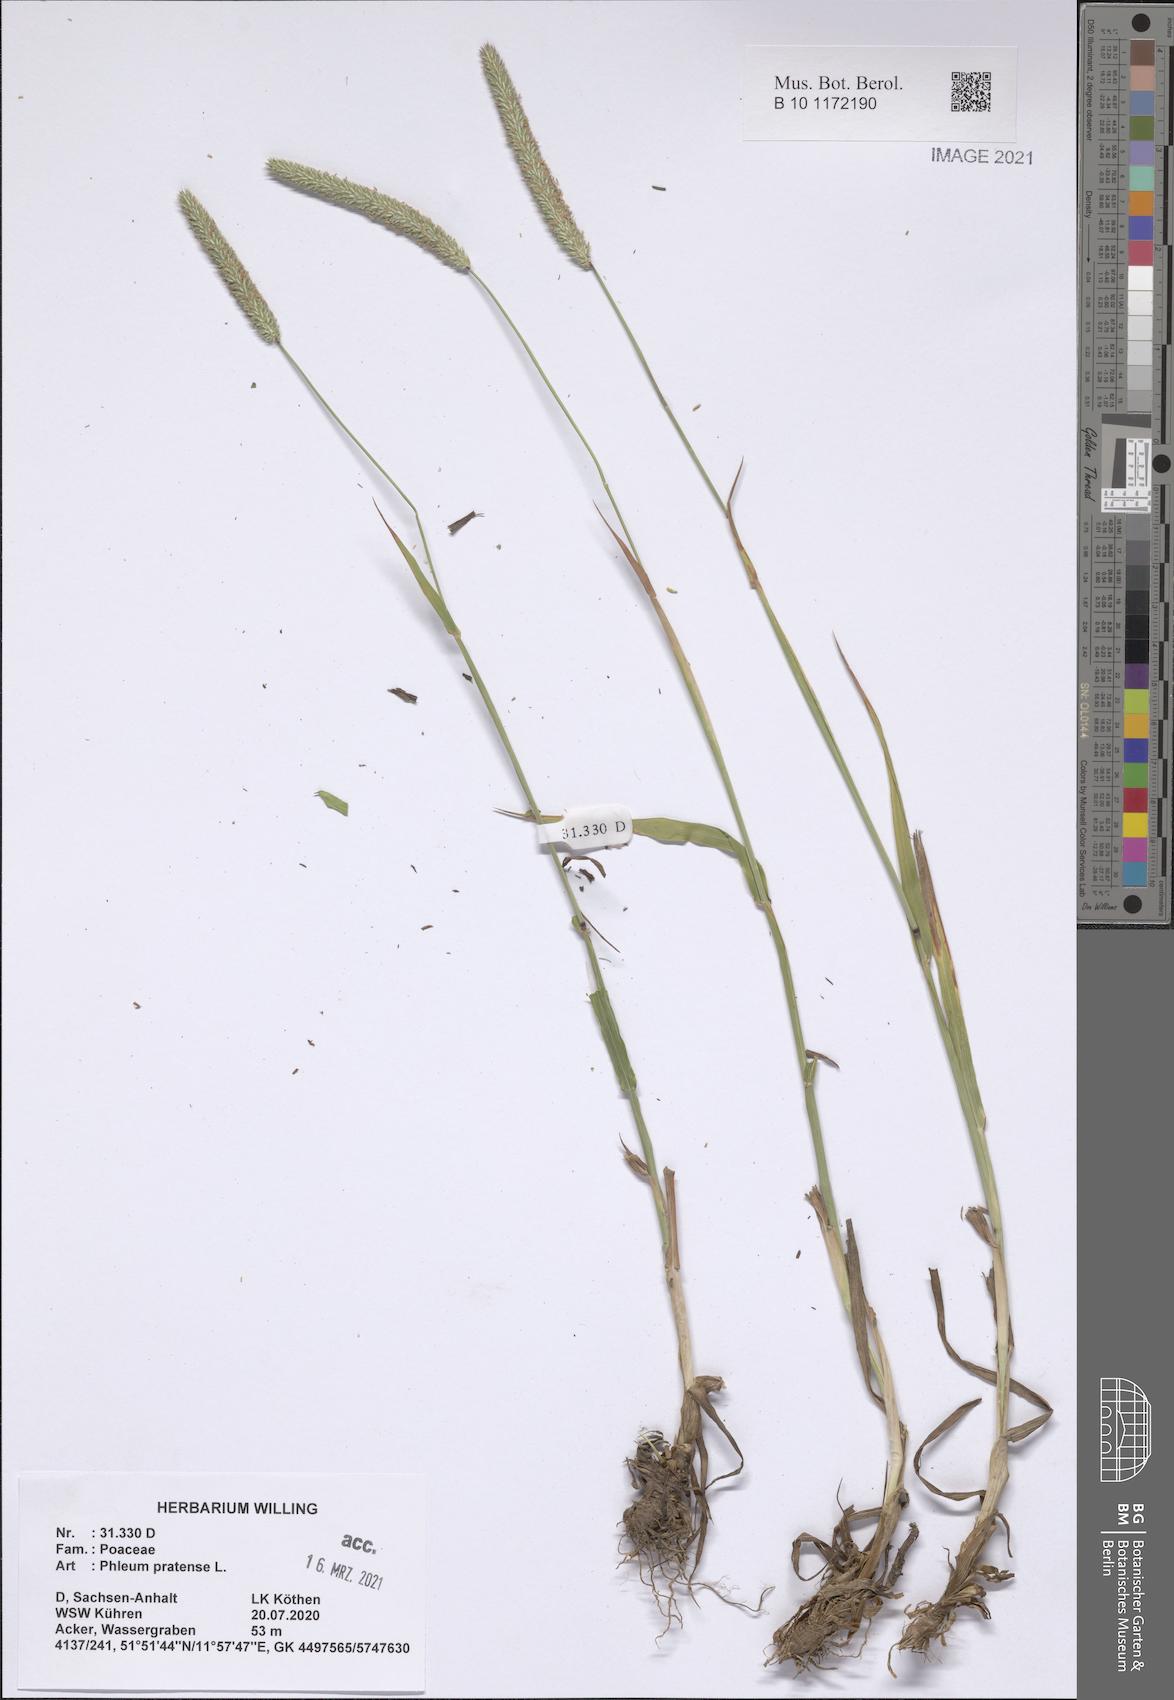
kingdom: Plantae
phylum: Tracheophyta
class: Liliopsida
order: Poales
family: Poaceae
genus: Phleum
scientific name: Phleum pratense
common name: Timothy grass
